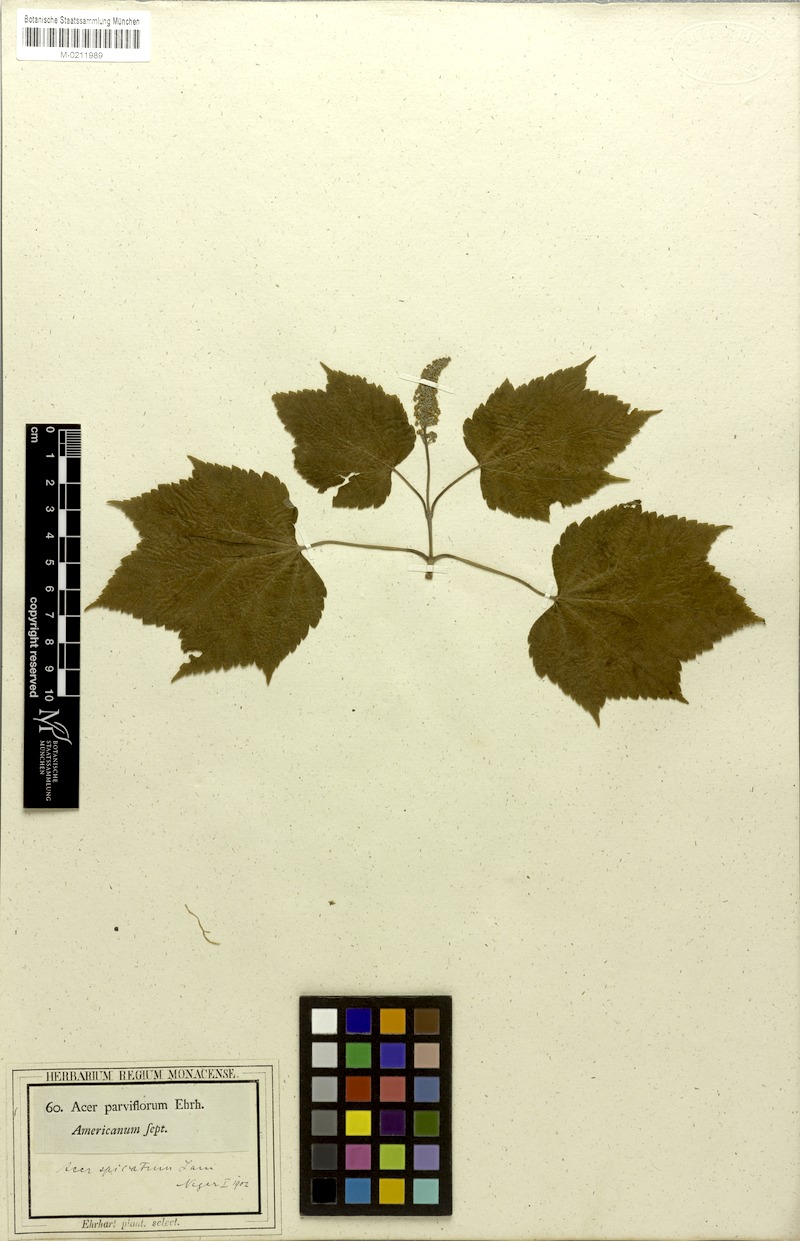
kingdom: Plantae
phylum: Tracheophyta
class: Magnoliopsida
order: Sapindales
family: Sapindaceae
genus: Acer
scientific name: Acer spicatum
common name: Mountain maple
